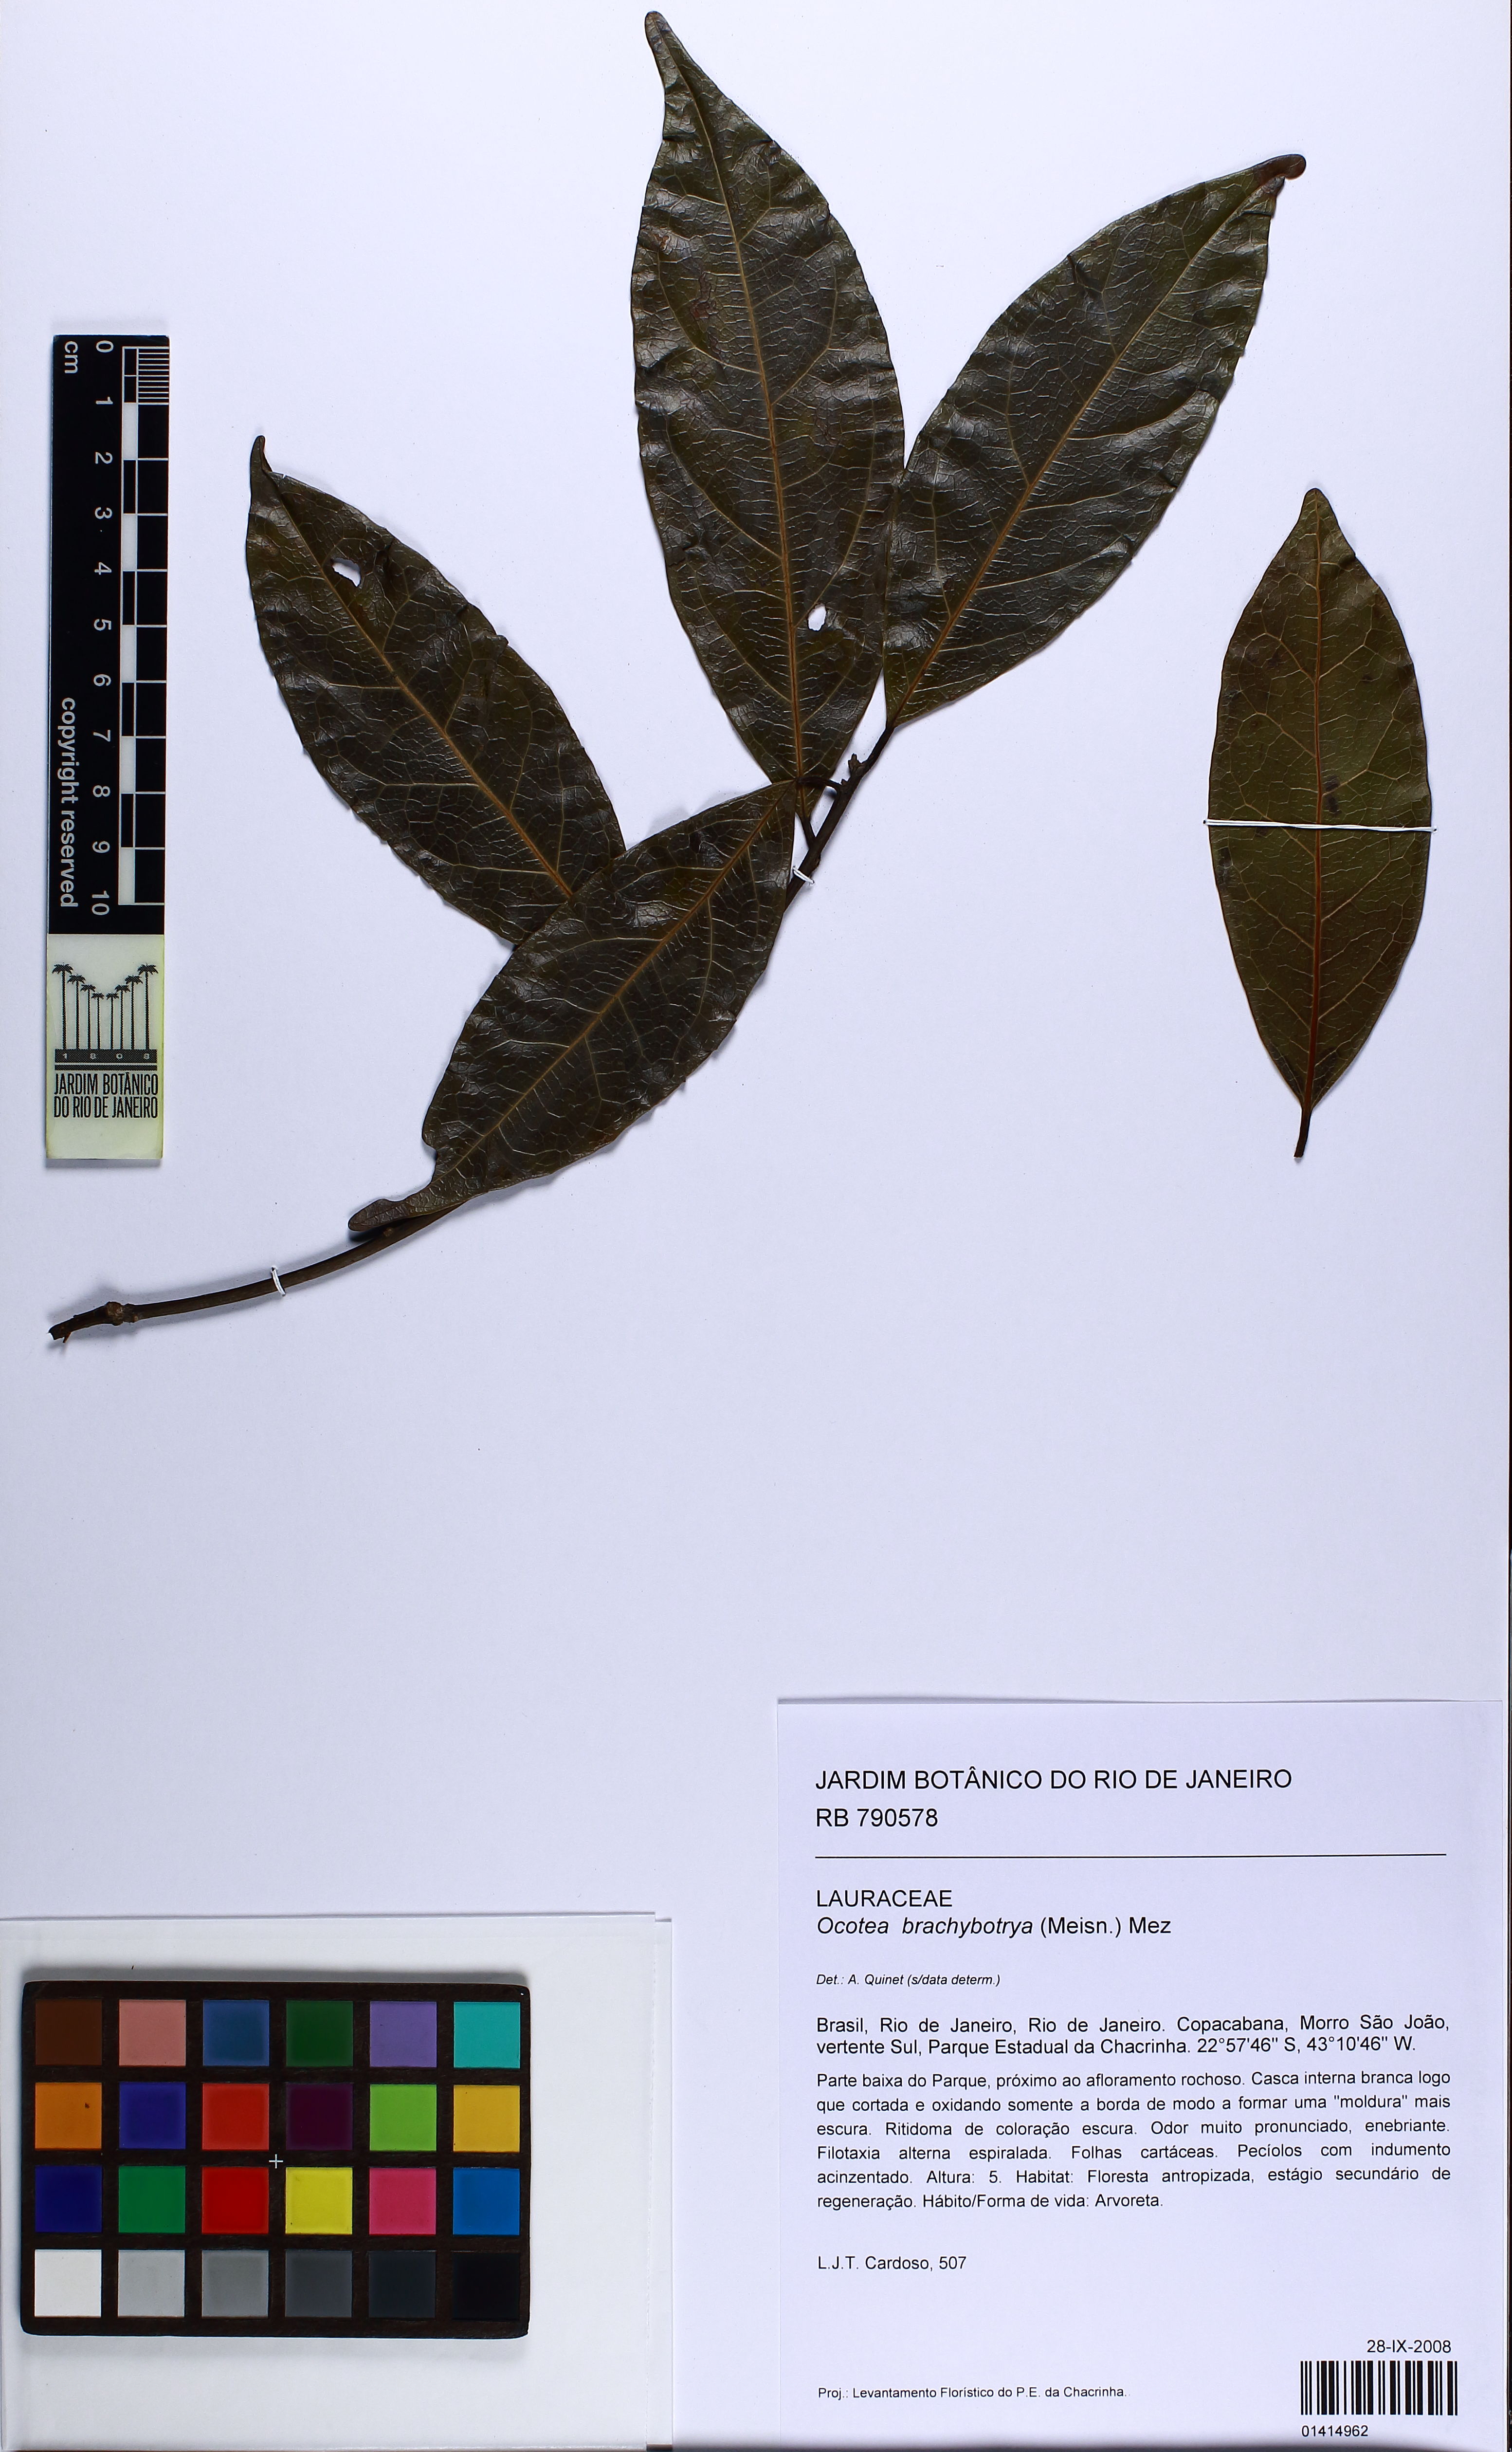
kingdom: Plantae
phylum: Tracheophyta
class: Magnoliopsida
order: Laurales
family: Lauraceae
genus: Ocotea
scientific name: Ocotea brachybotra
